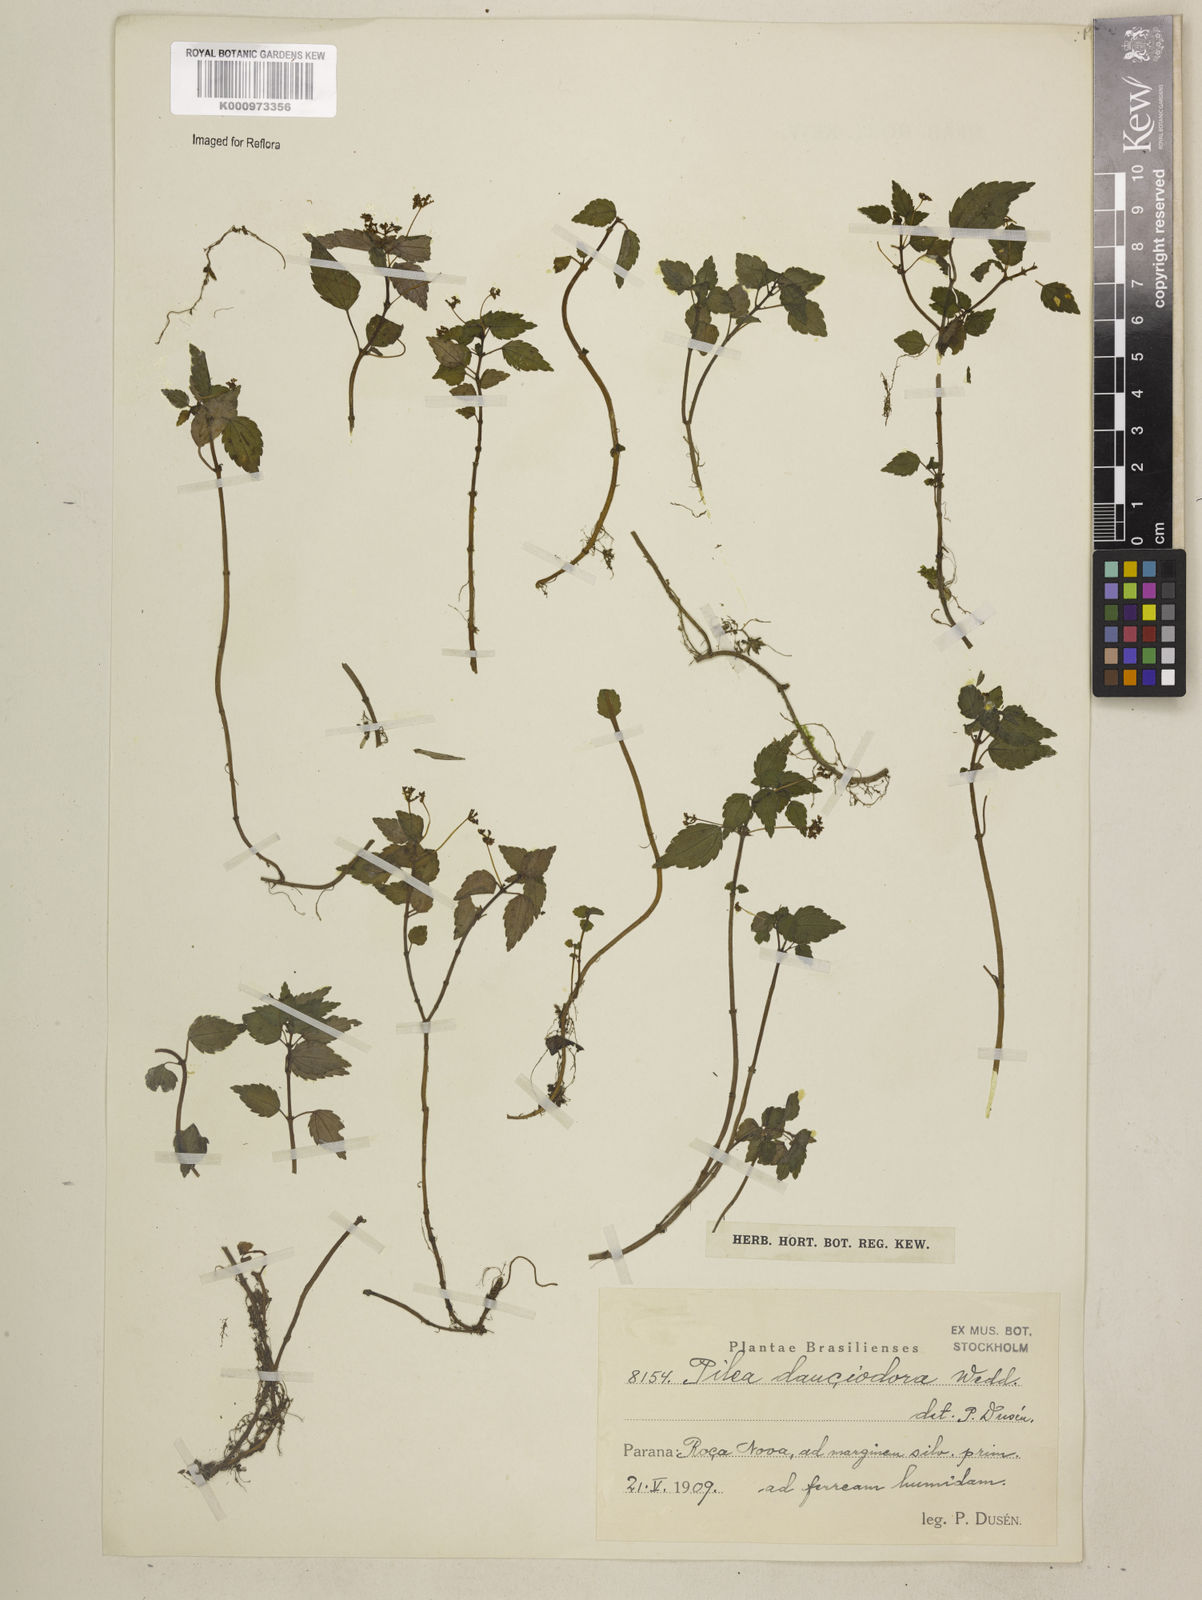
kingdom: Plantae
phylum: Tracheophyta
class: Magnoliopsida
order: Rosales
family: Urticaceae
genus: Pilea
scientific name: Pilea fallax
